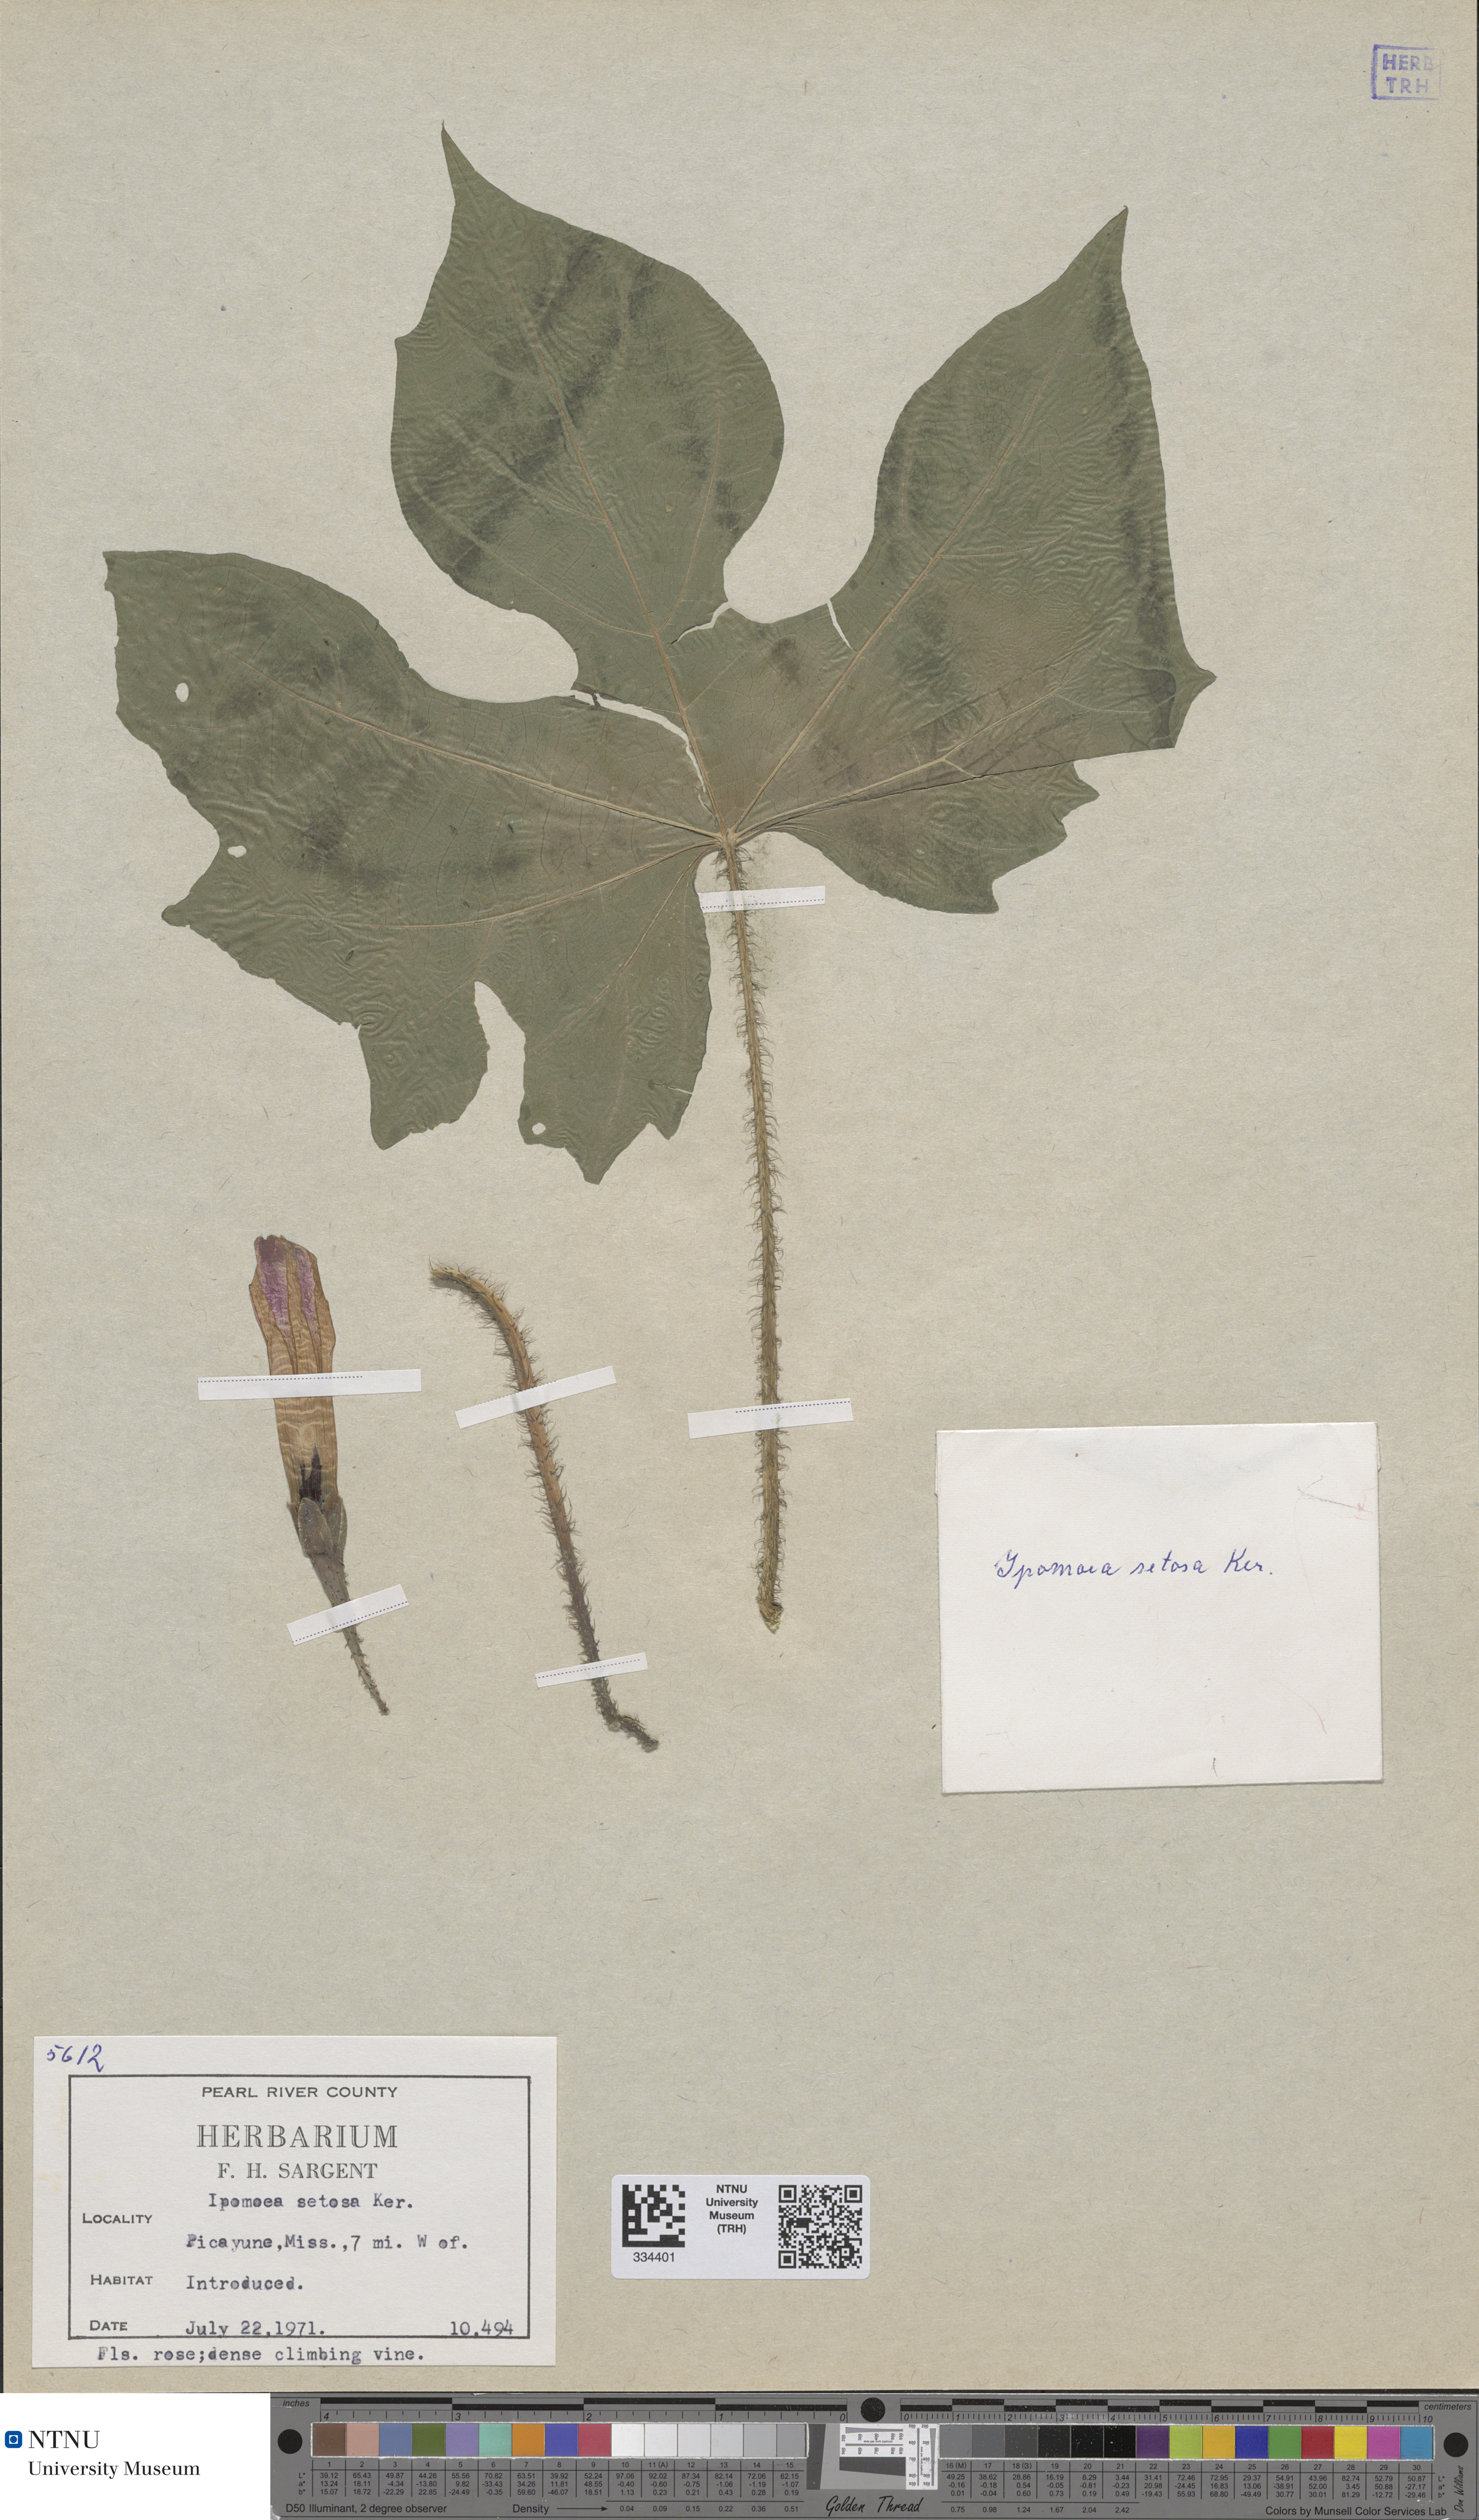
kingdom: Plantae
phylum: Tracheophyta
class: Magnoliopsida
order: Solanales
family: Convolvulaceae
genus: Ipomoea
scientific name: Ipomoea setosa
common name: Brazilian morning-glory
